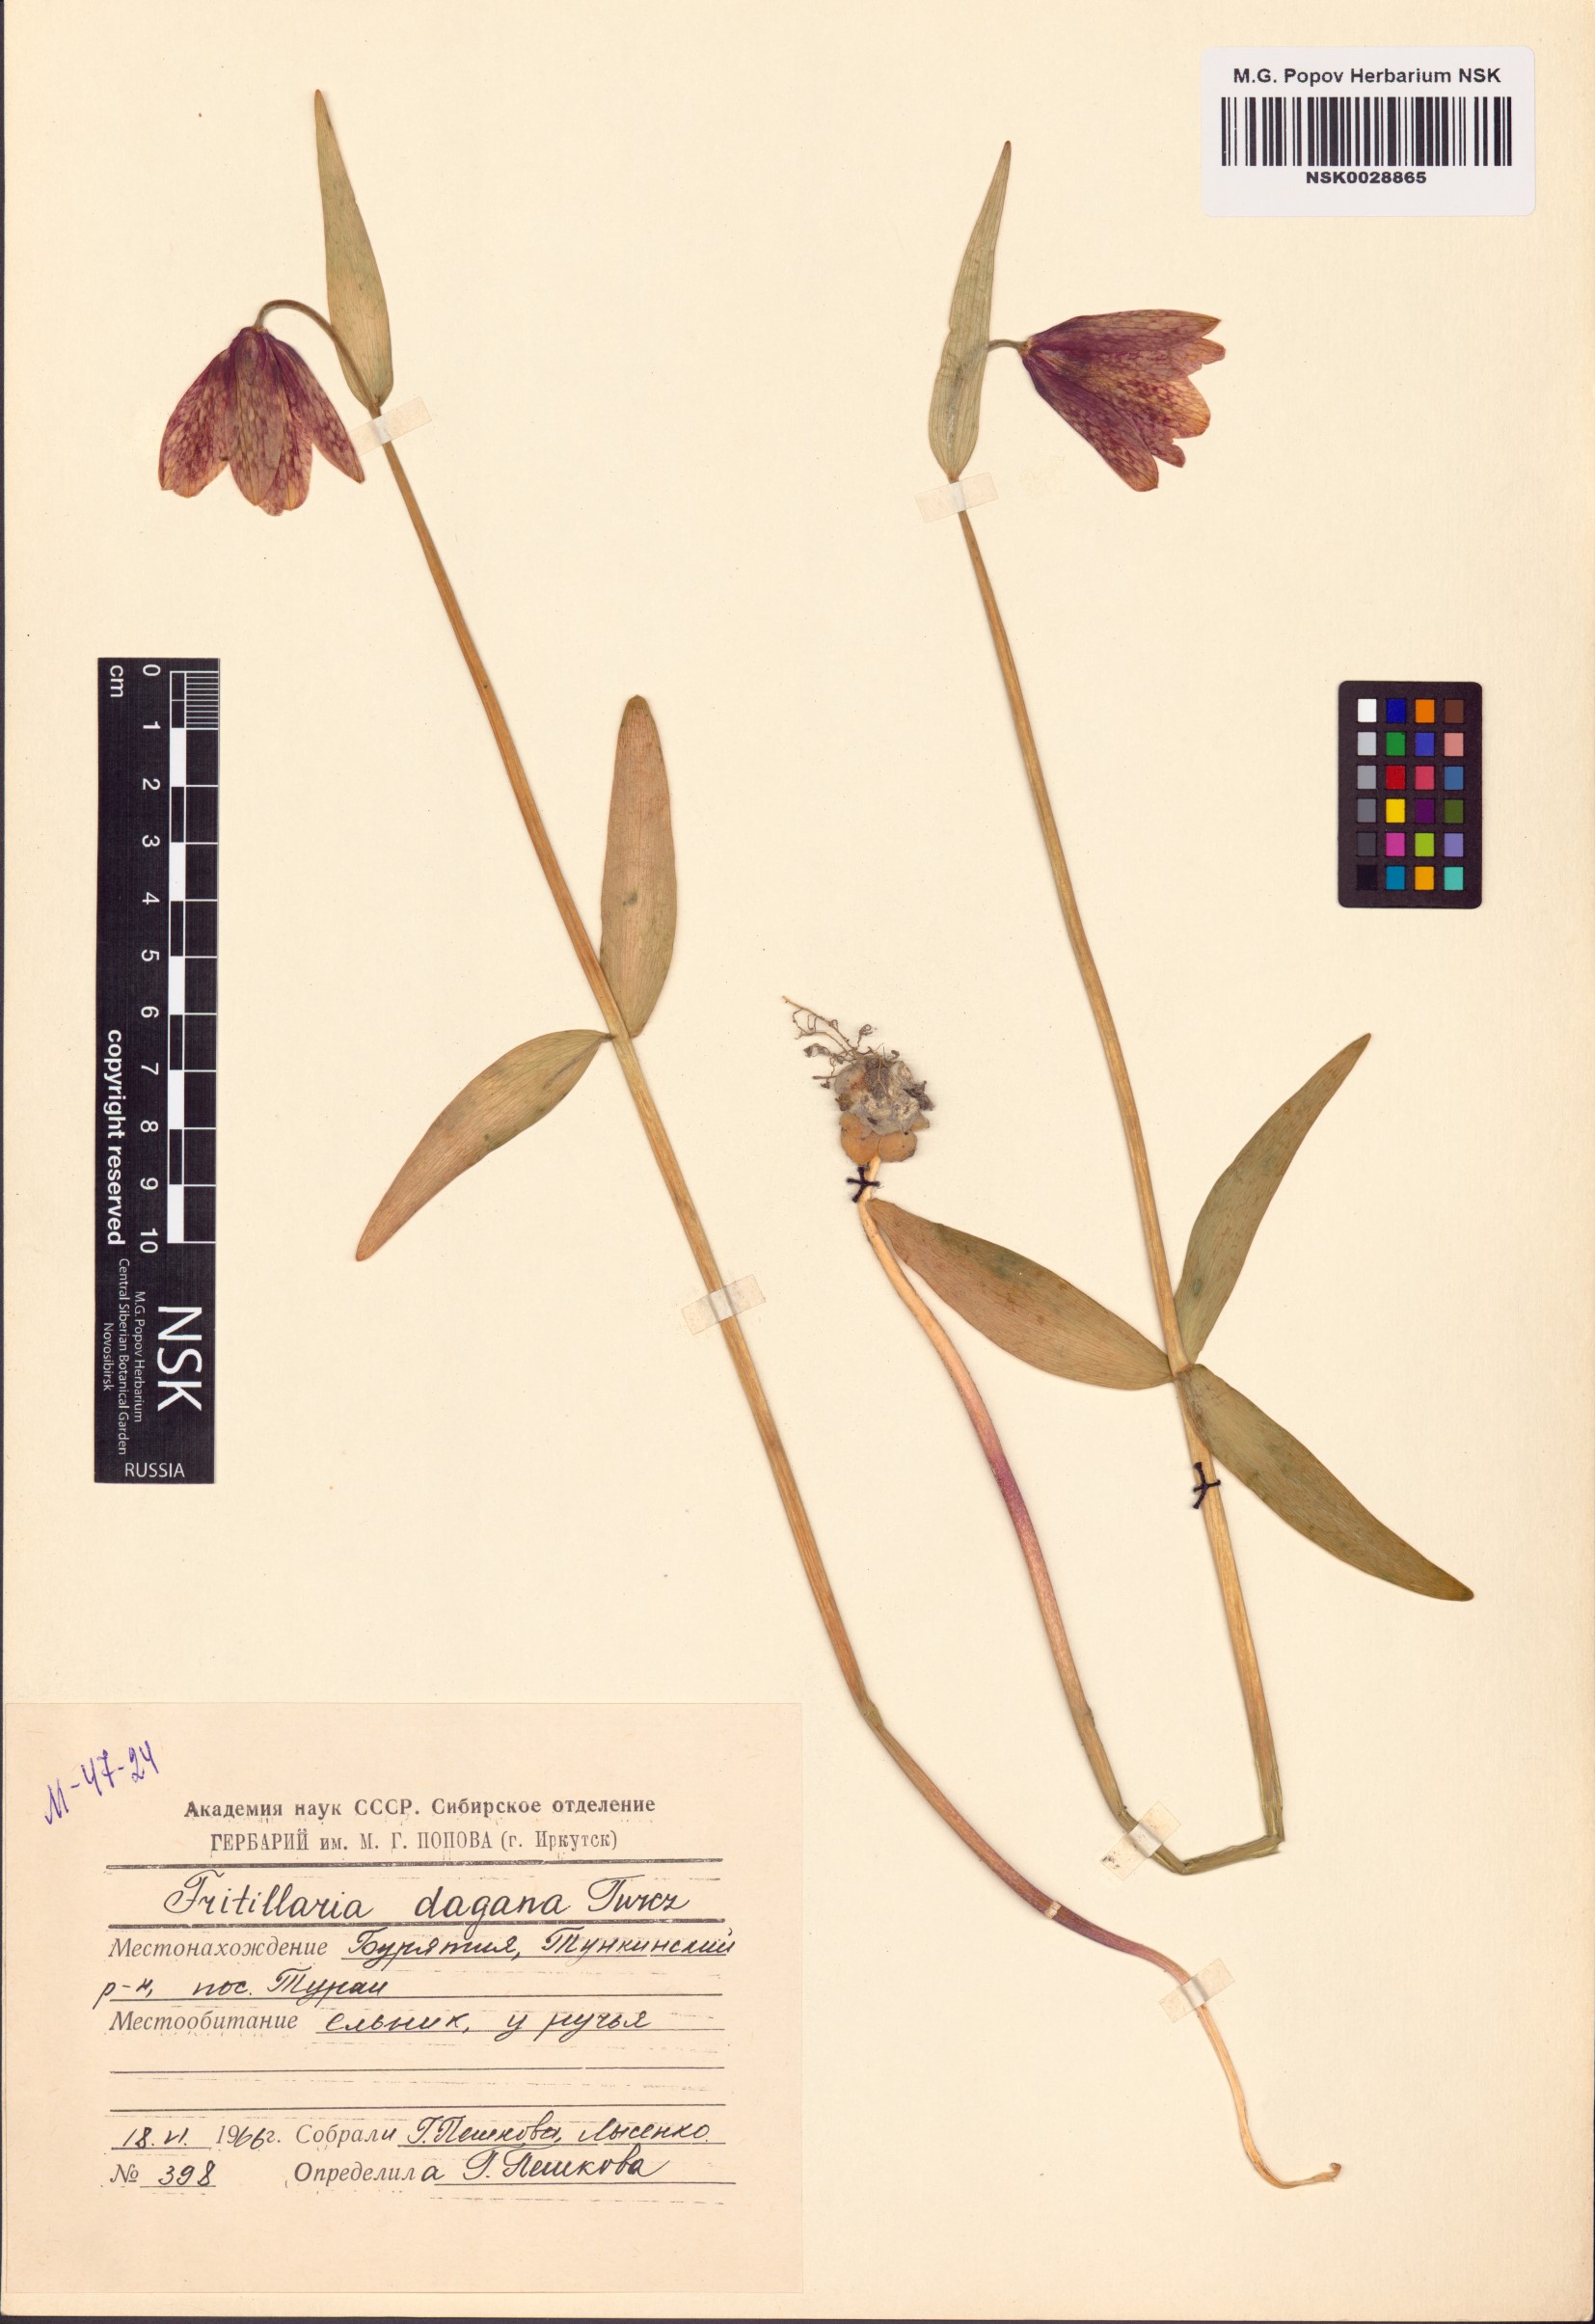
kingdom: Plantae
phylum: Tracheophyta
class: Liliopsida
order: Liliales
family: Liliaceae
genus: Fritillaria
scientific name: Fritillaria dagana
